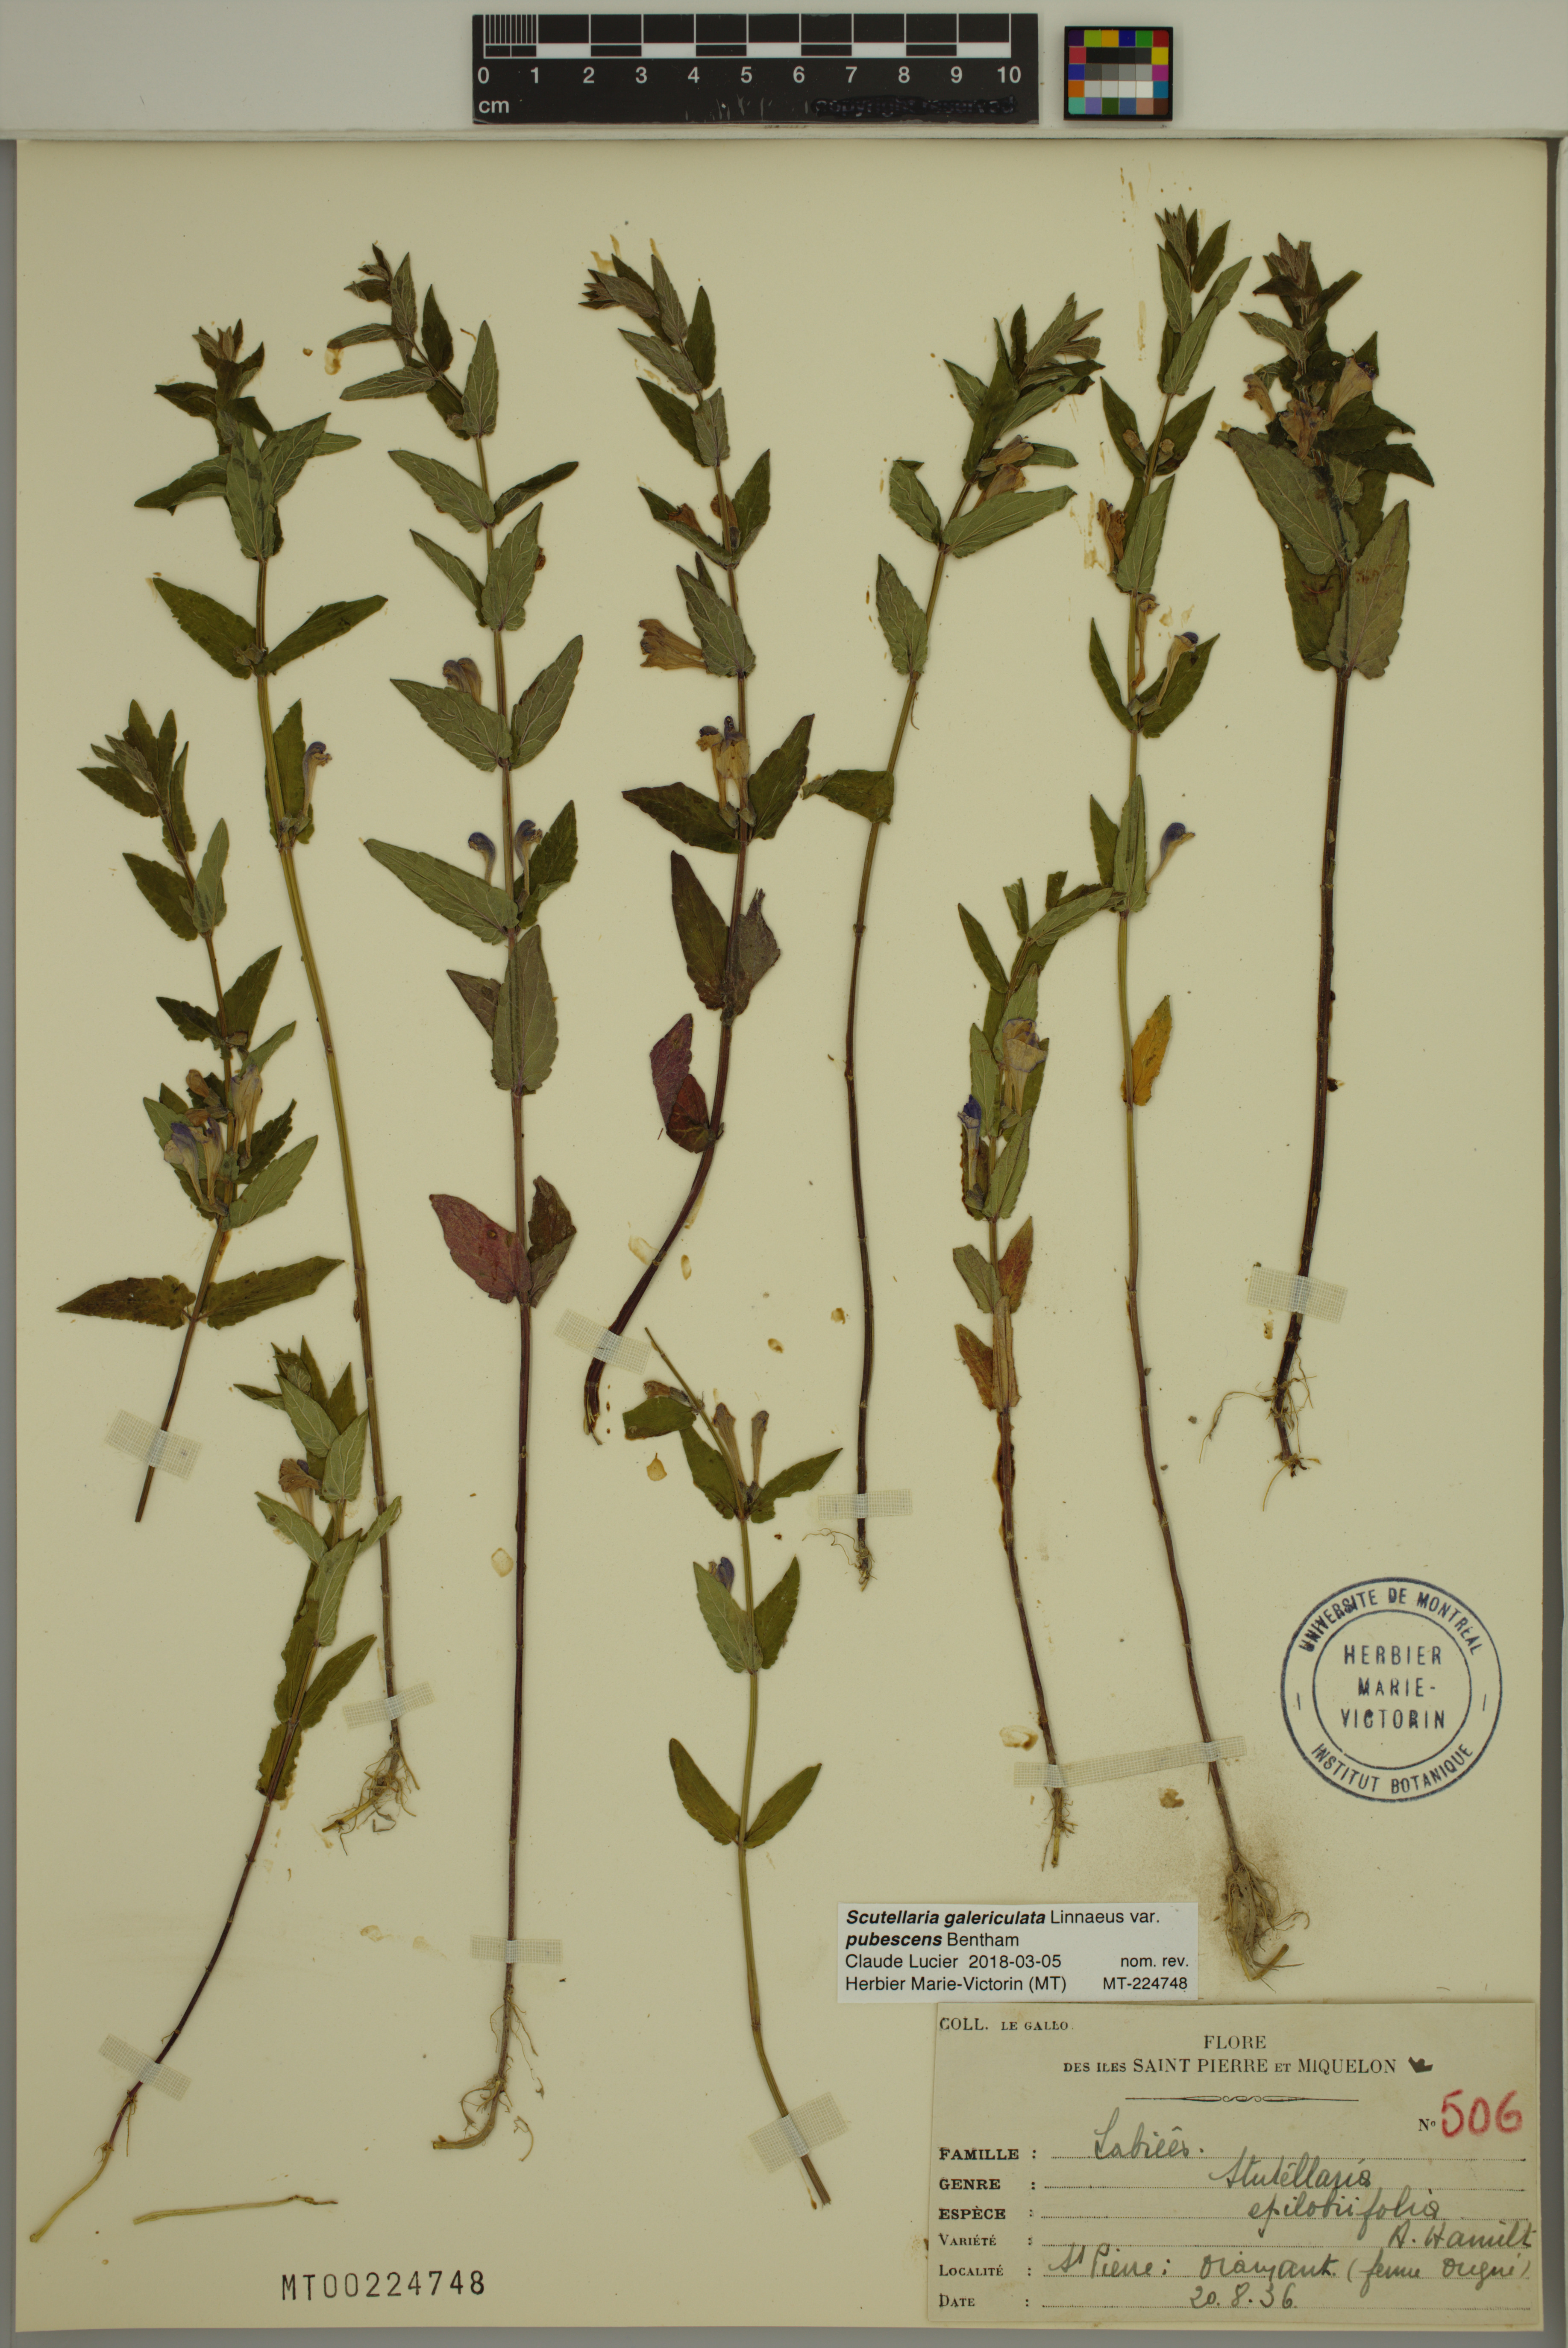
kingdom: Plantae
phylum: Tracheophyta
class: Magnoliopsida
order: Lamiales
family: Lamiaceae
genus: Scutellaria
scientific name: Scutellaria nicholsonii
